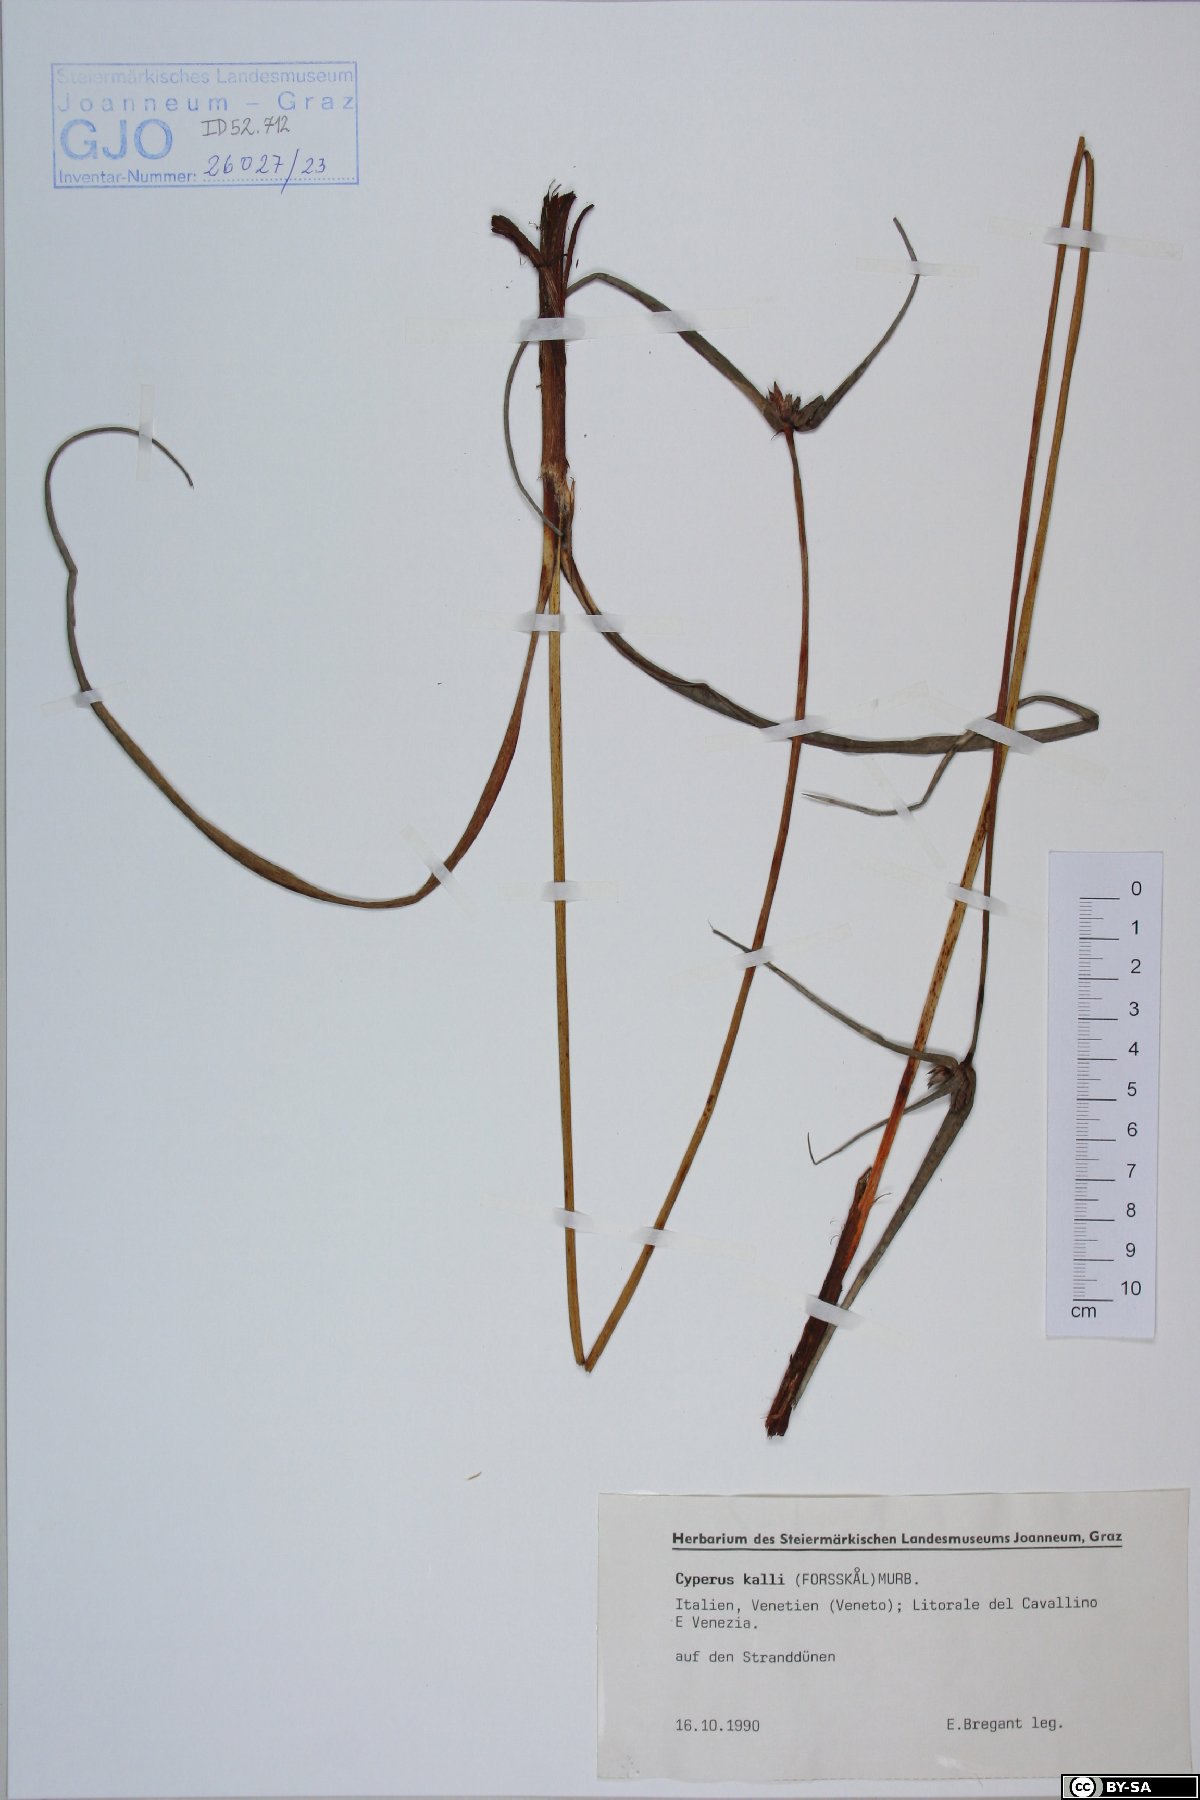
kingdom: Plantae
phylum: Tracheophyta
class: Liliopsida
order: Poales
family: Cyperaceae
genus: Cyperus
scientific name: Cyperus capitatus
